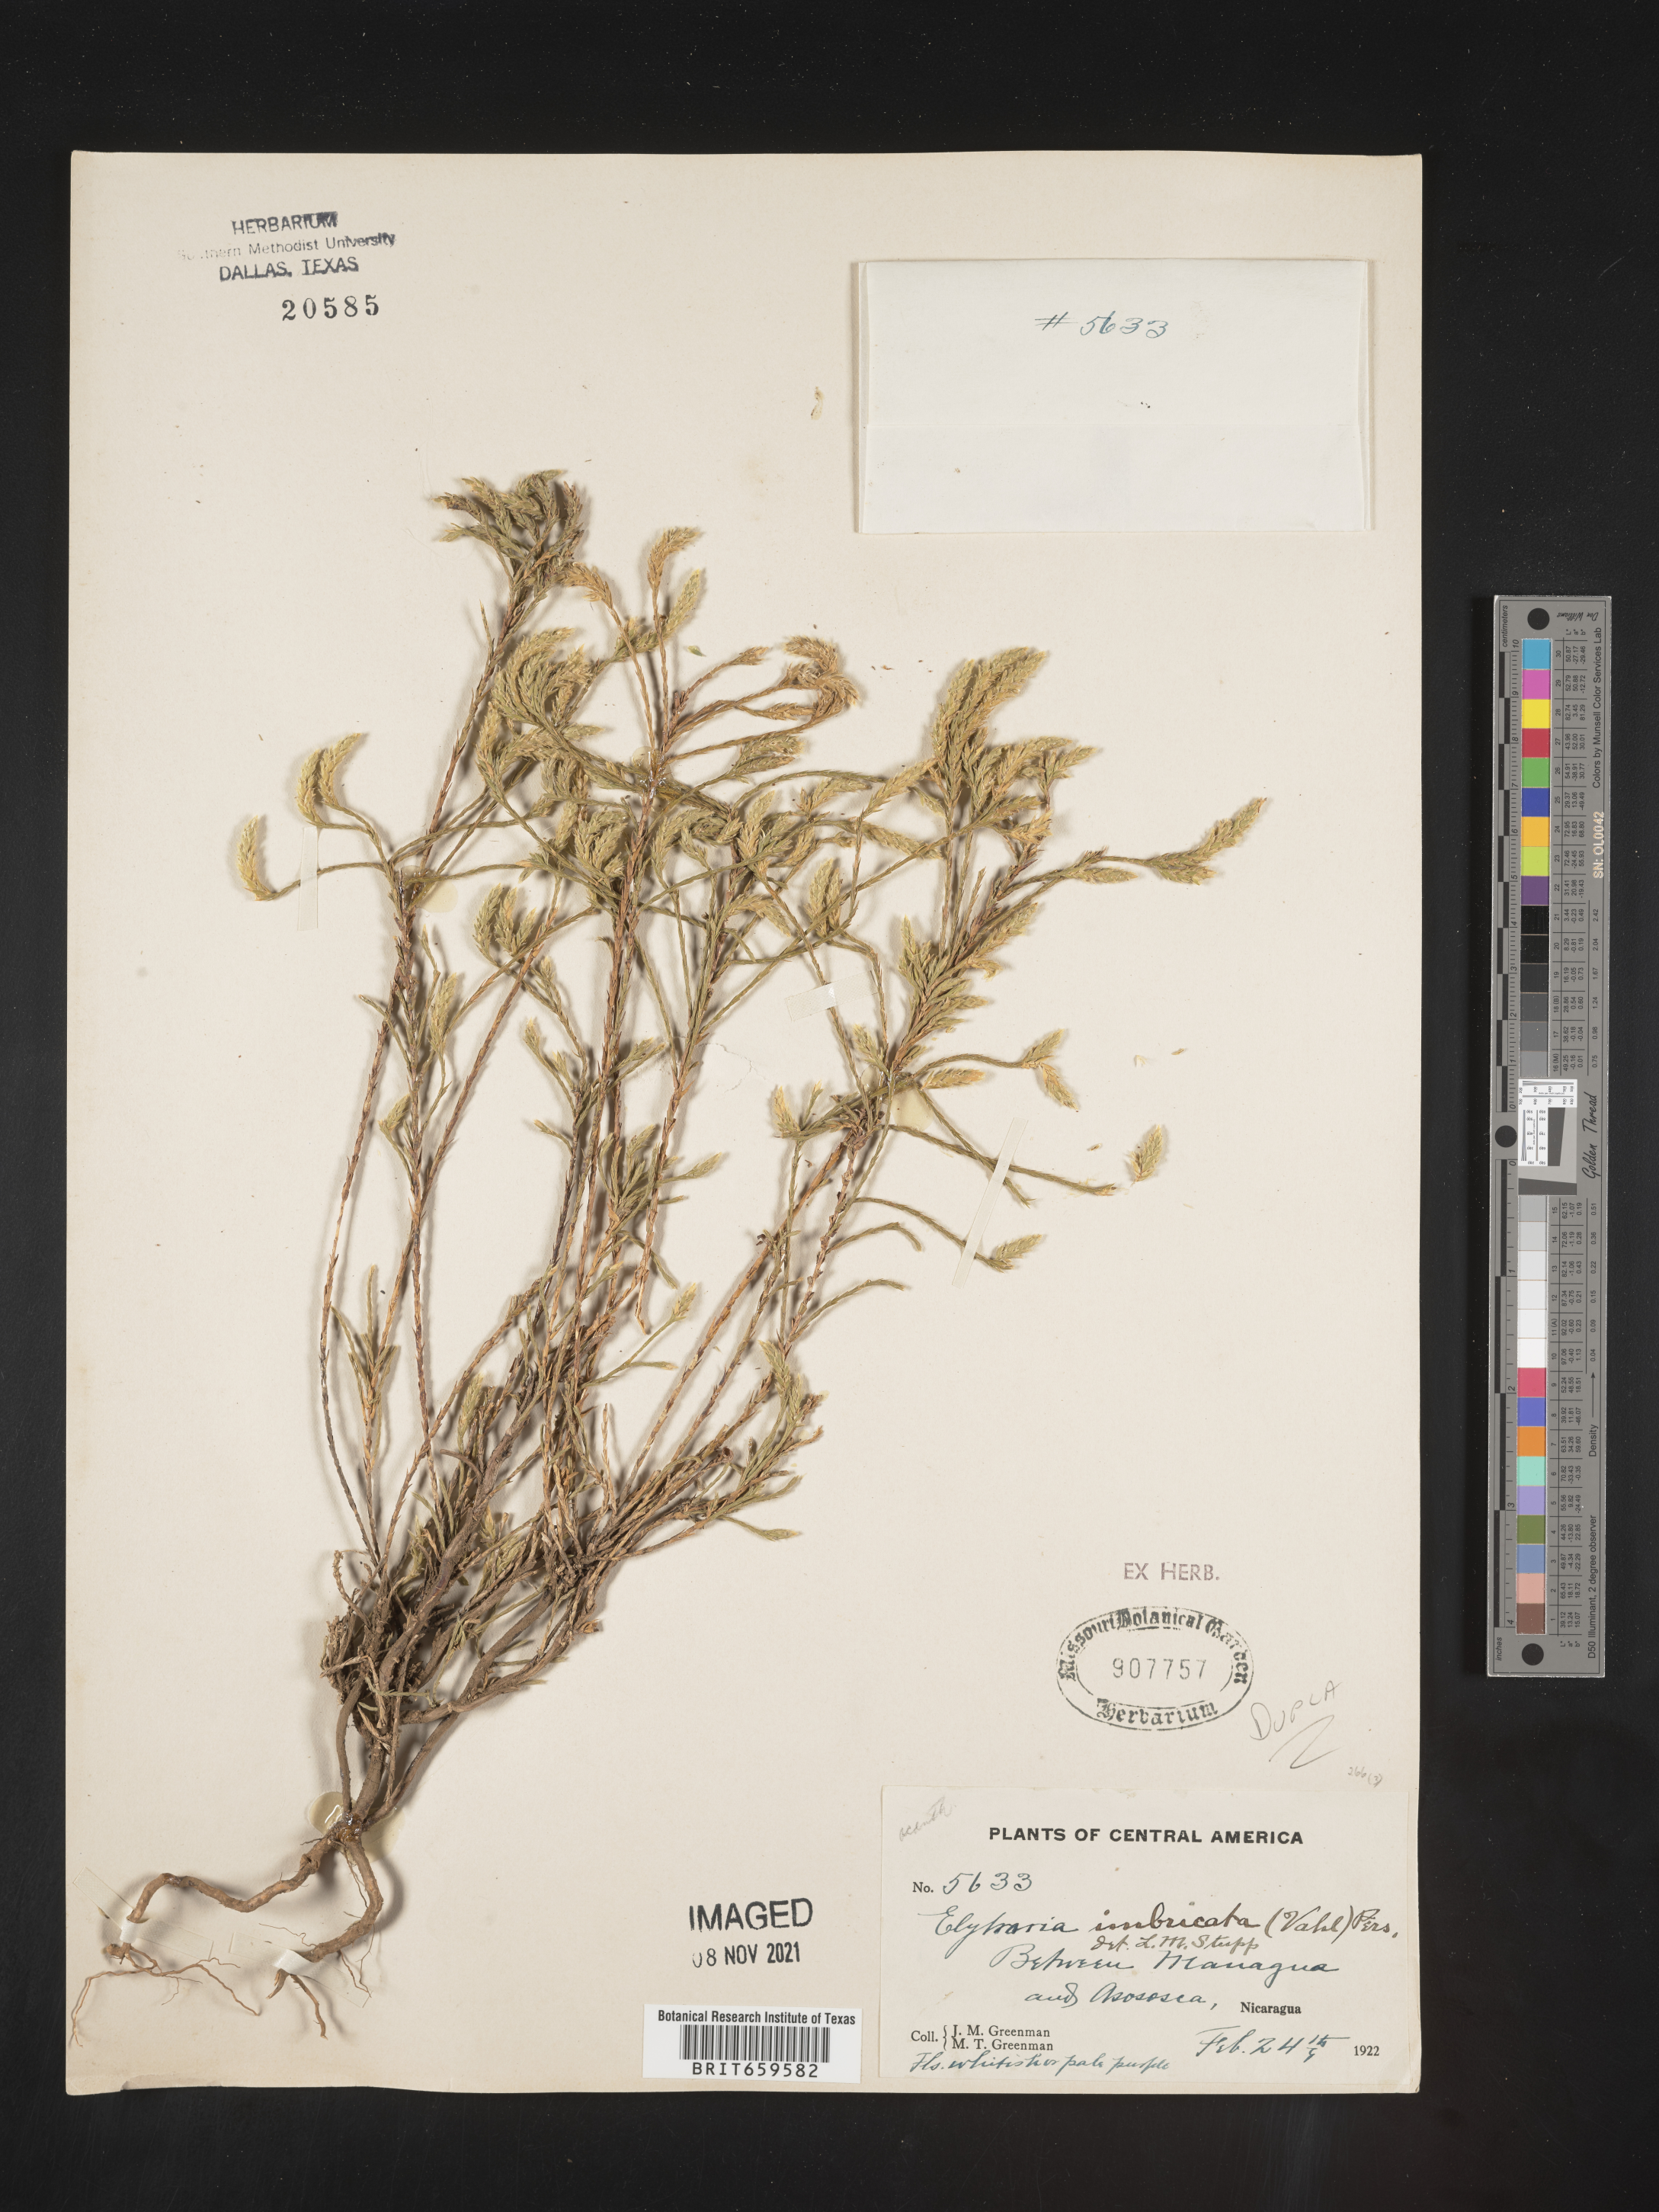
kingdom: Plantae
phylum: Tracheophyta
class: Magnoliopsida
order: Lamiales
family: Acanthaceae
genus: Elytraria
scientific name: Elytraria imbricata
